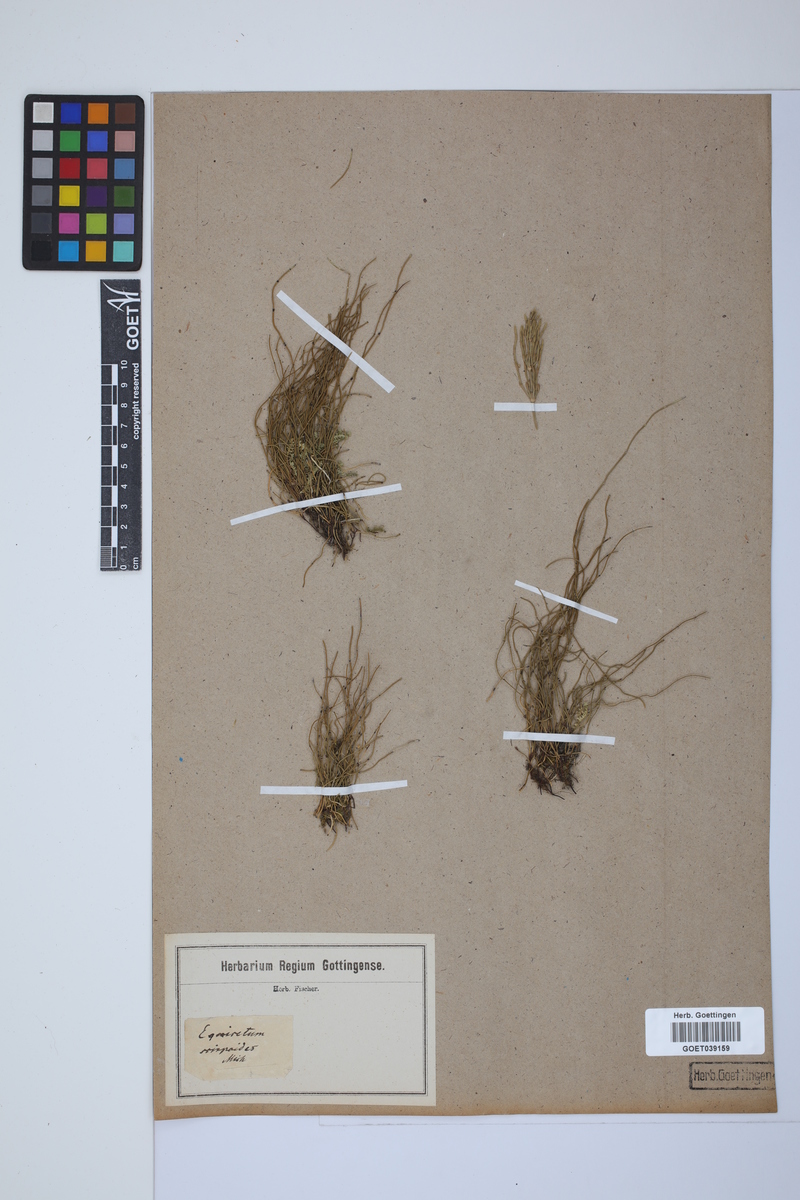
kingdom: Plantae
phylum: Tracheophyta
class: Polypodiopsida
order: Equisetales
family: Equisetaceae
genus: Equisetum
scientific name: Equisetum scirpoides
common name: Delicate horsetail
